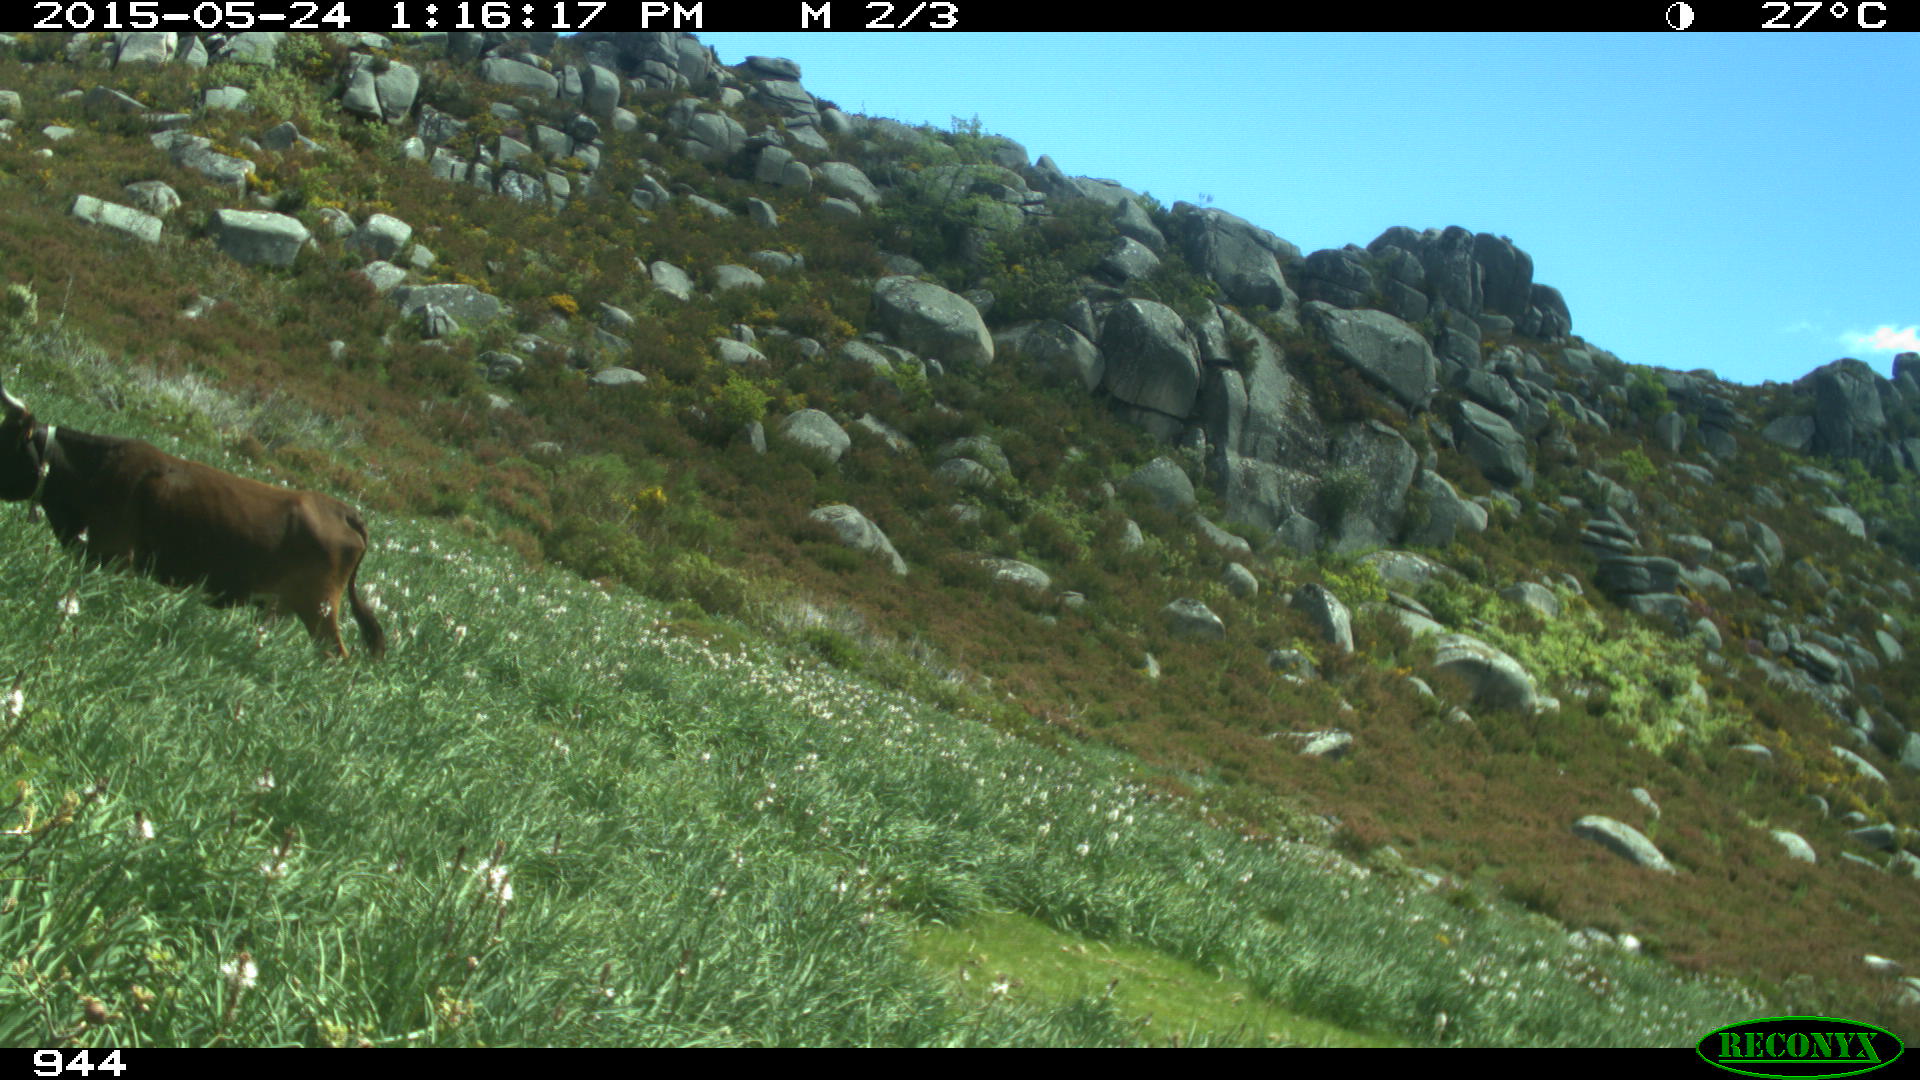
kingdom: Animalia
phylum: Chordata
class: Mammalia
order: Artiodactyla
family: Bovidae
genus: Bos
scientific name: Bos taurus
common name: Domesticated cattle
